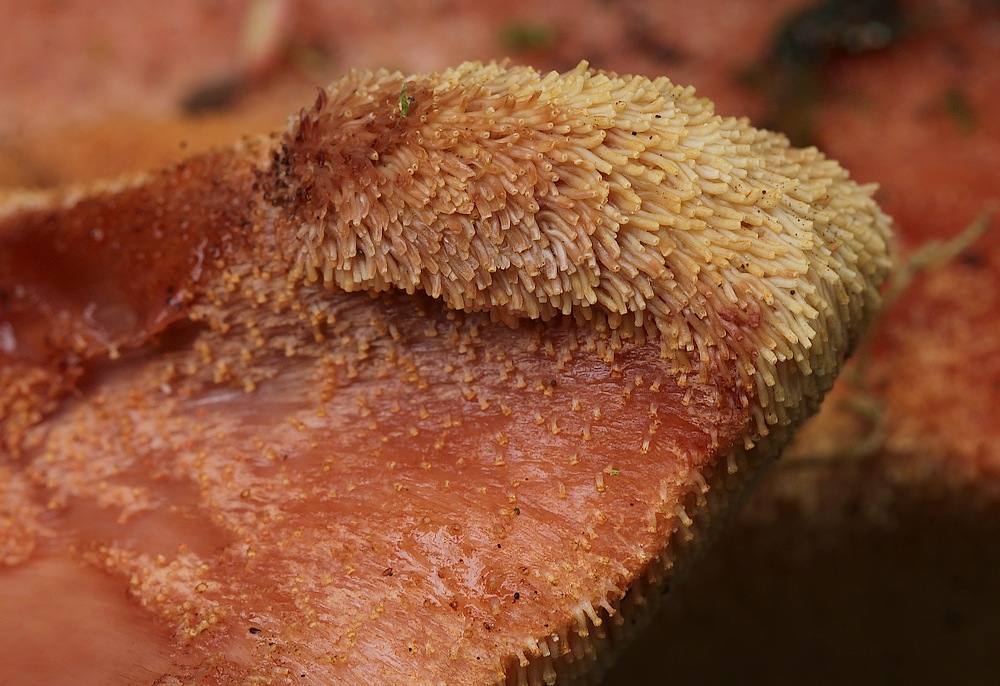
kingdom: Fungi
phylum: Basidiomycota
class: Agaricomycetes
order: Agaricales
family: Fistulinaceae
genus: Fistulina
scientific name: Fistulina hepatica
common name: oksetunge
